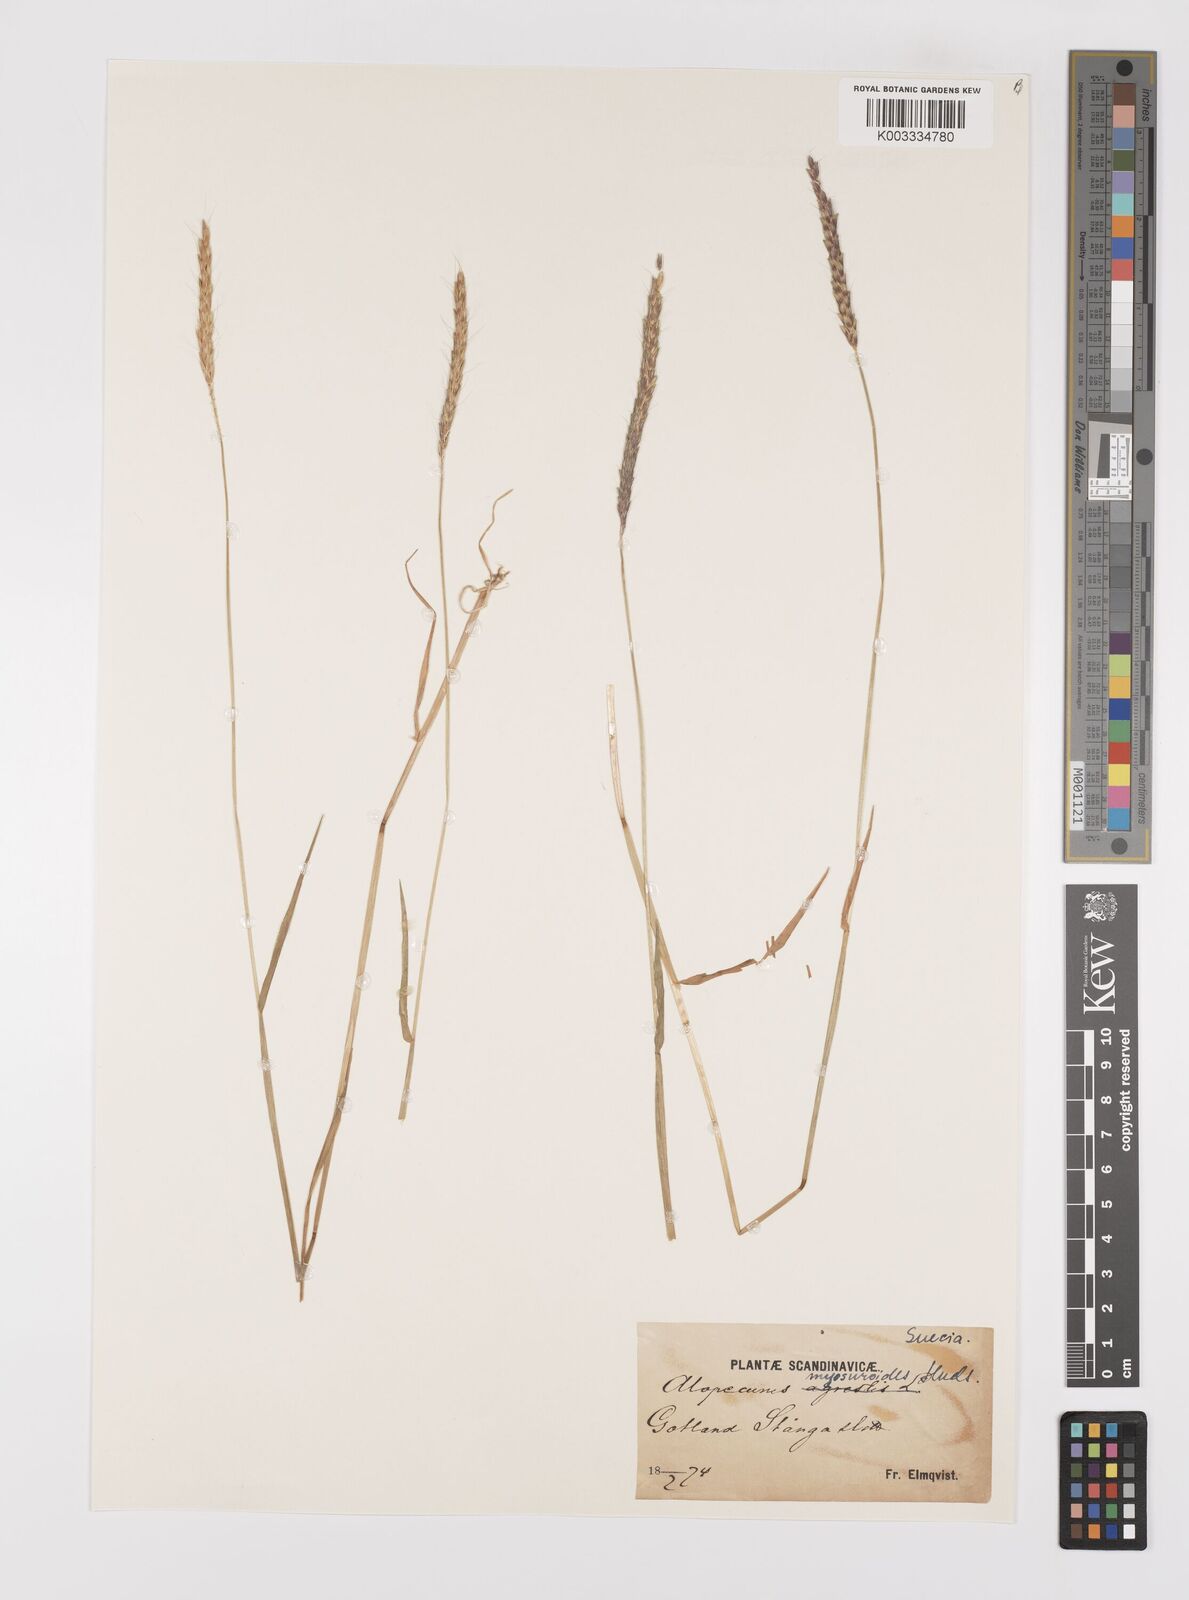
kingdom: Plantae
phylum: Tracheophyta
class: Liliopsida
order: Poales
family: Poaceae
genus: Alopecurus
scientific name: Alopecurus myosuroides
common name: Black-grass
